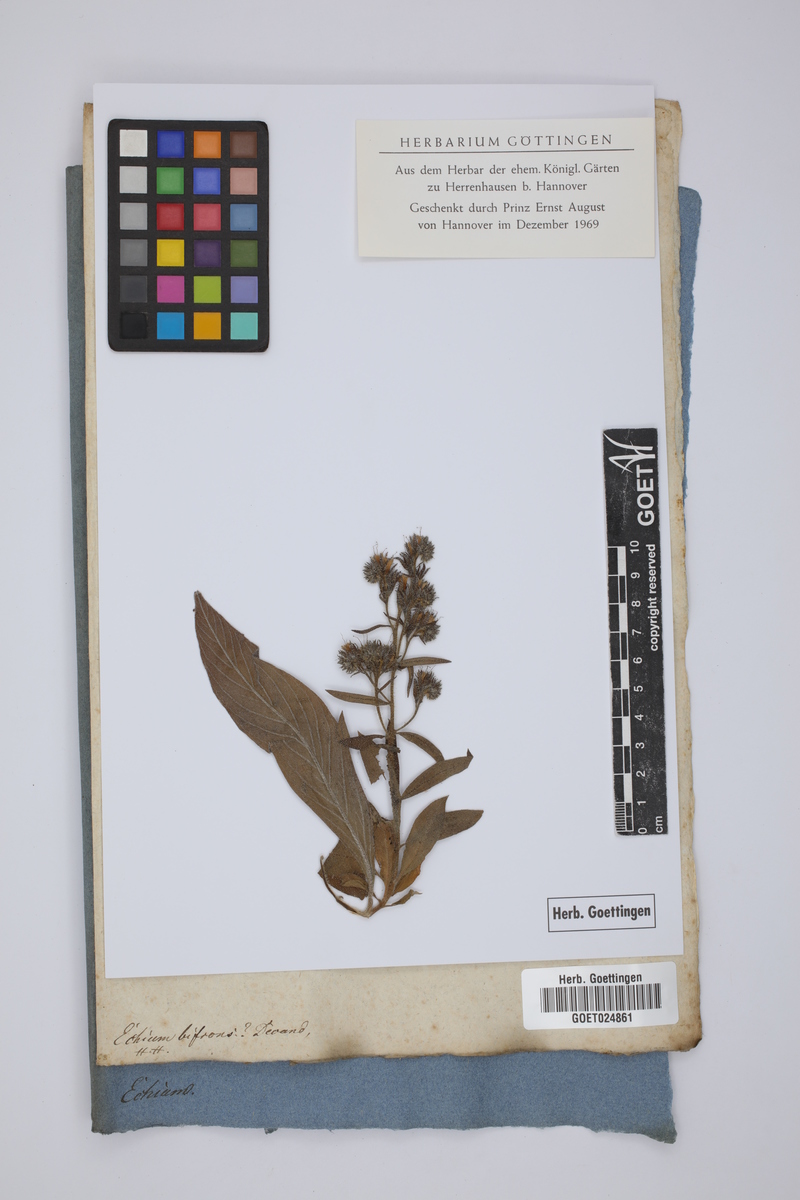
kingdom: Plantae
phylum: Tracheophyta
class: Magnoliopsida
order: Boraginales
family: Boraginaceae
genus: Echium
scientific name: Echium webbii
